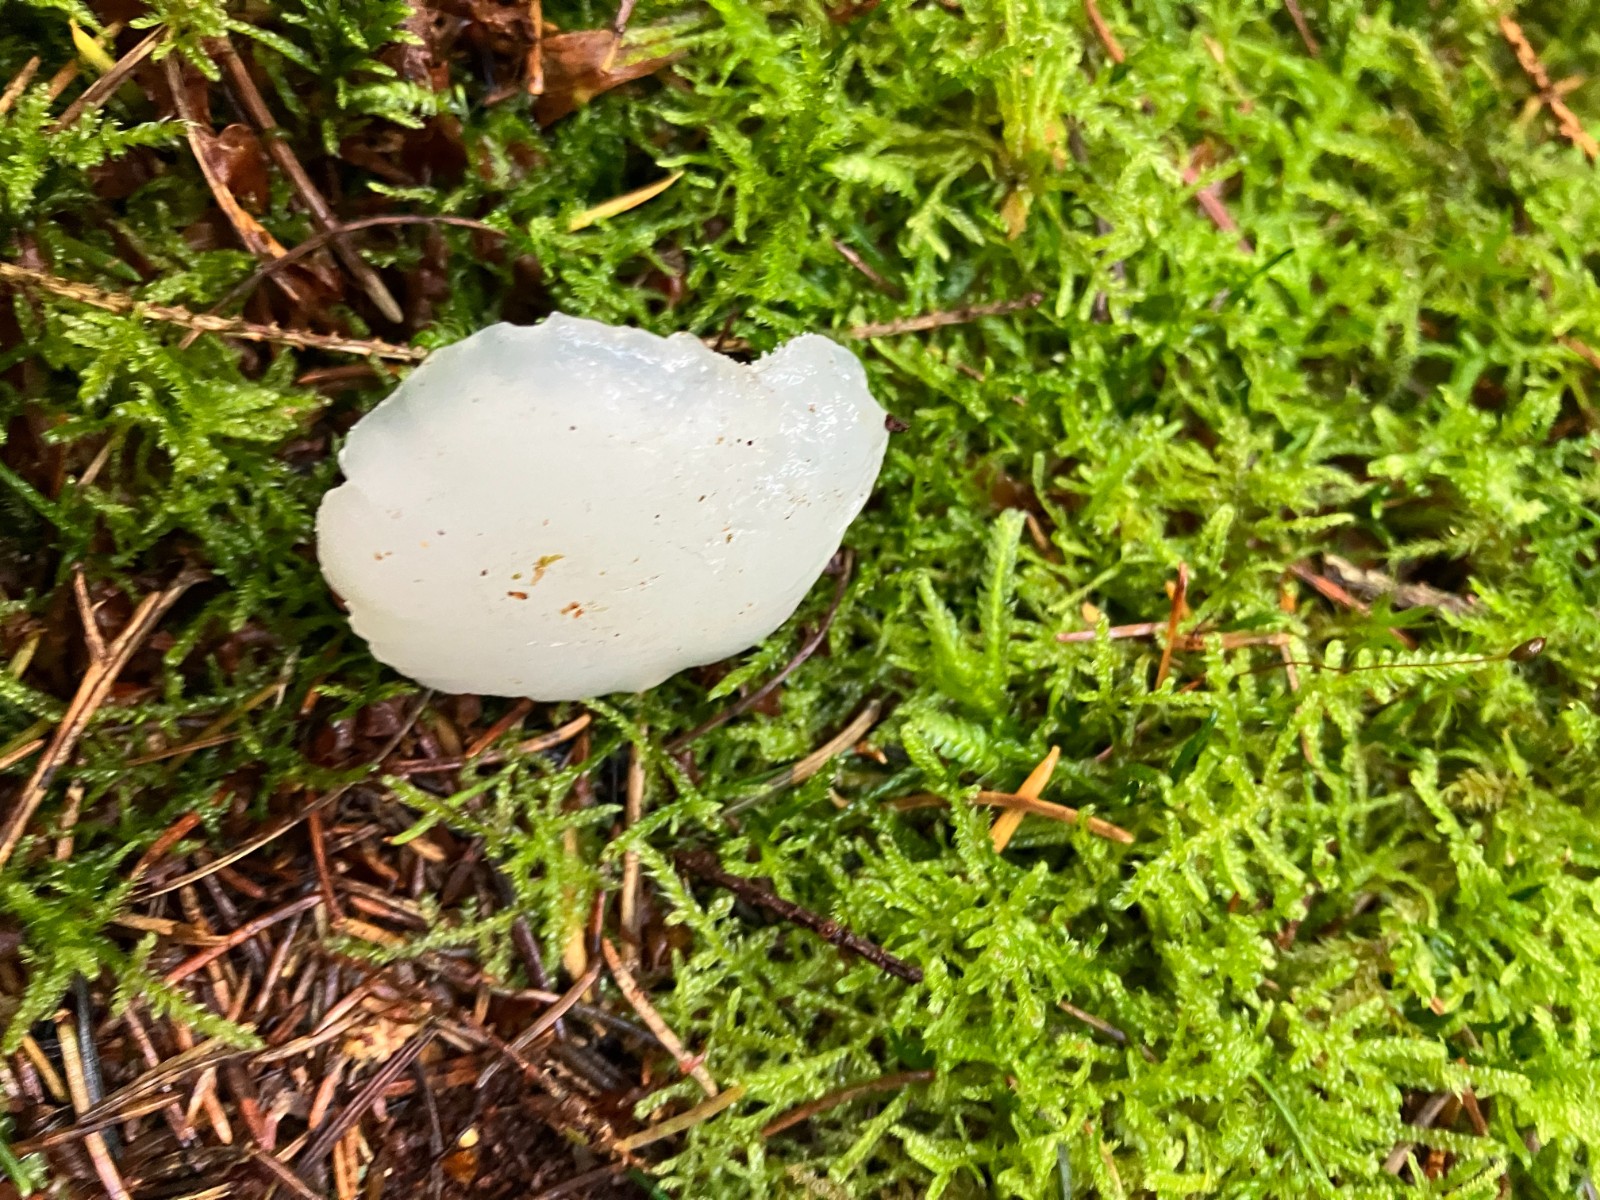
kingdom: Fungi
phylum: Basidiomycota
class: Agaricomycetes
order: Auriculariales
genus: Pseudohydnum
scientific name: Pseudohydnum gelatinosum
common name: bævretand
